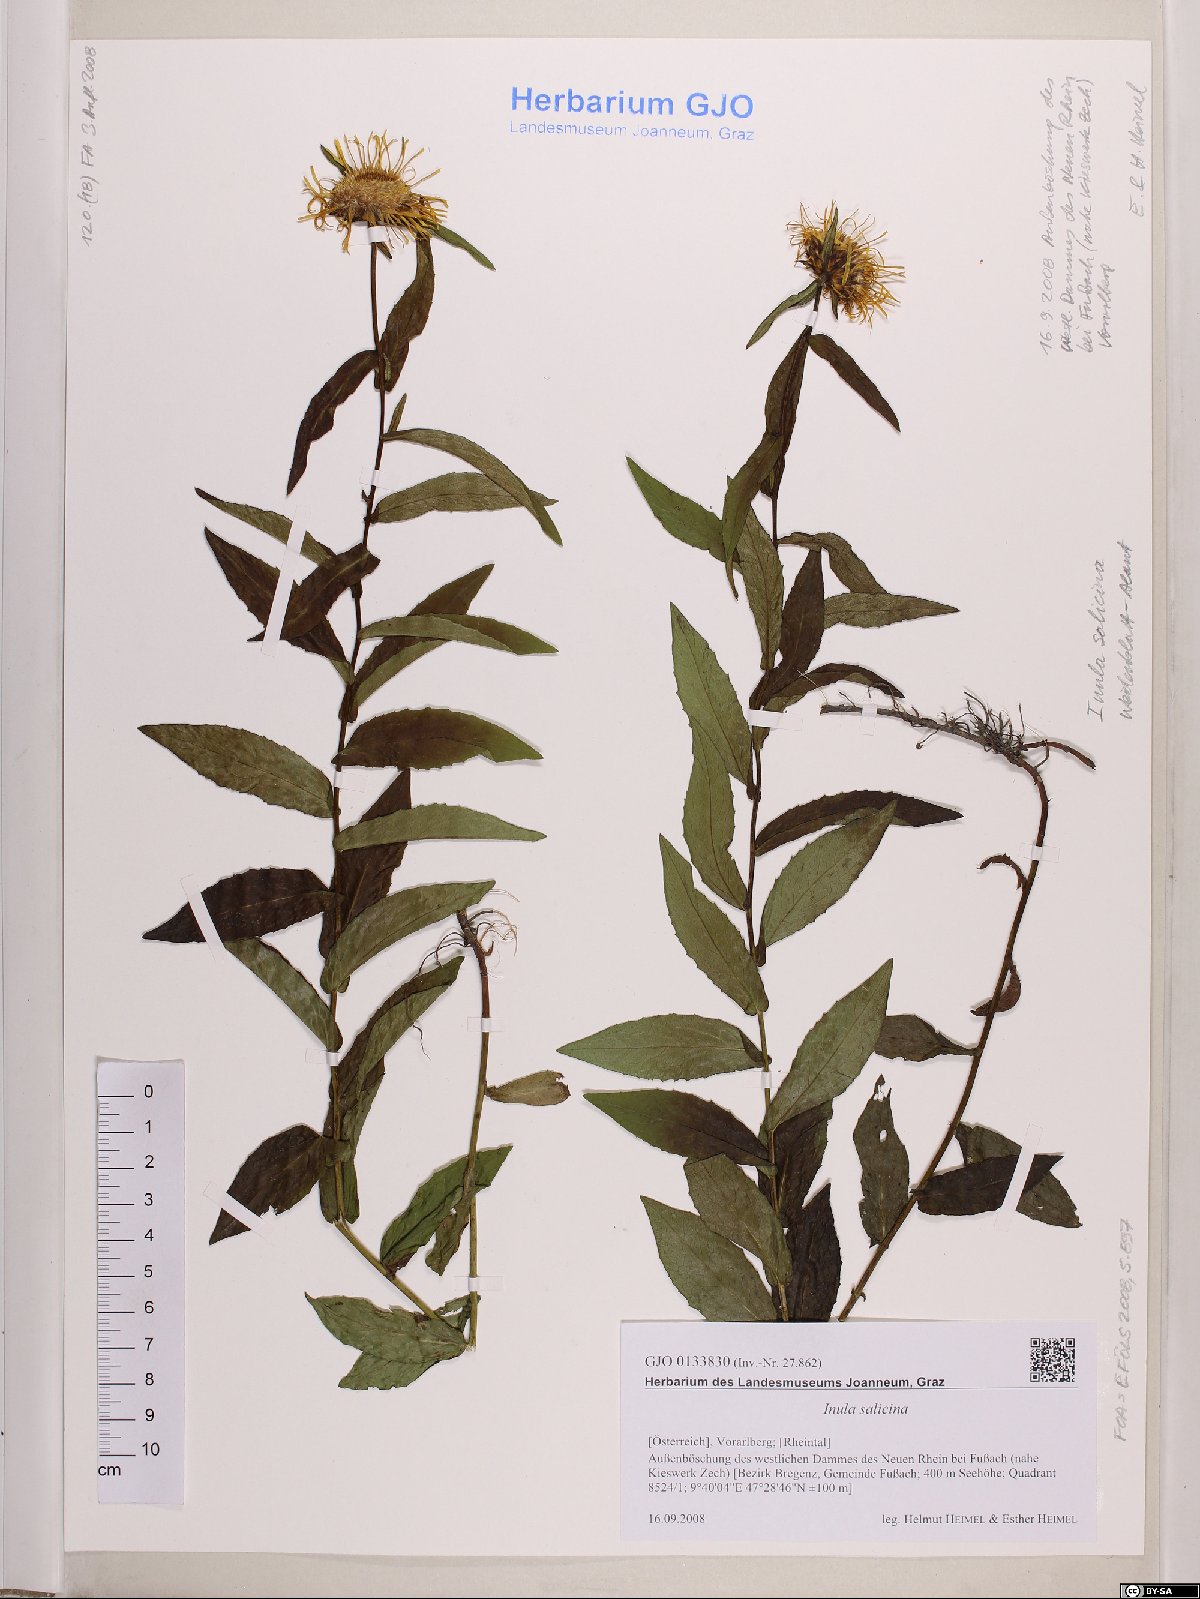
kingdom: Plantae
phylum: Tracheophyta
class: Magnoliopsida
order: Asterales
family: Asteraceae
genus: Pentanema
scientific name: Pentanema salicinum
